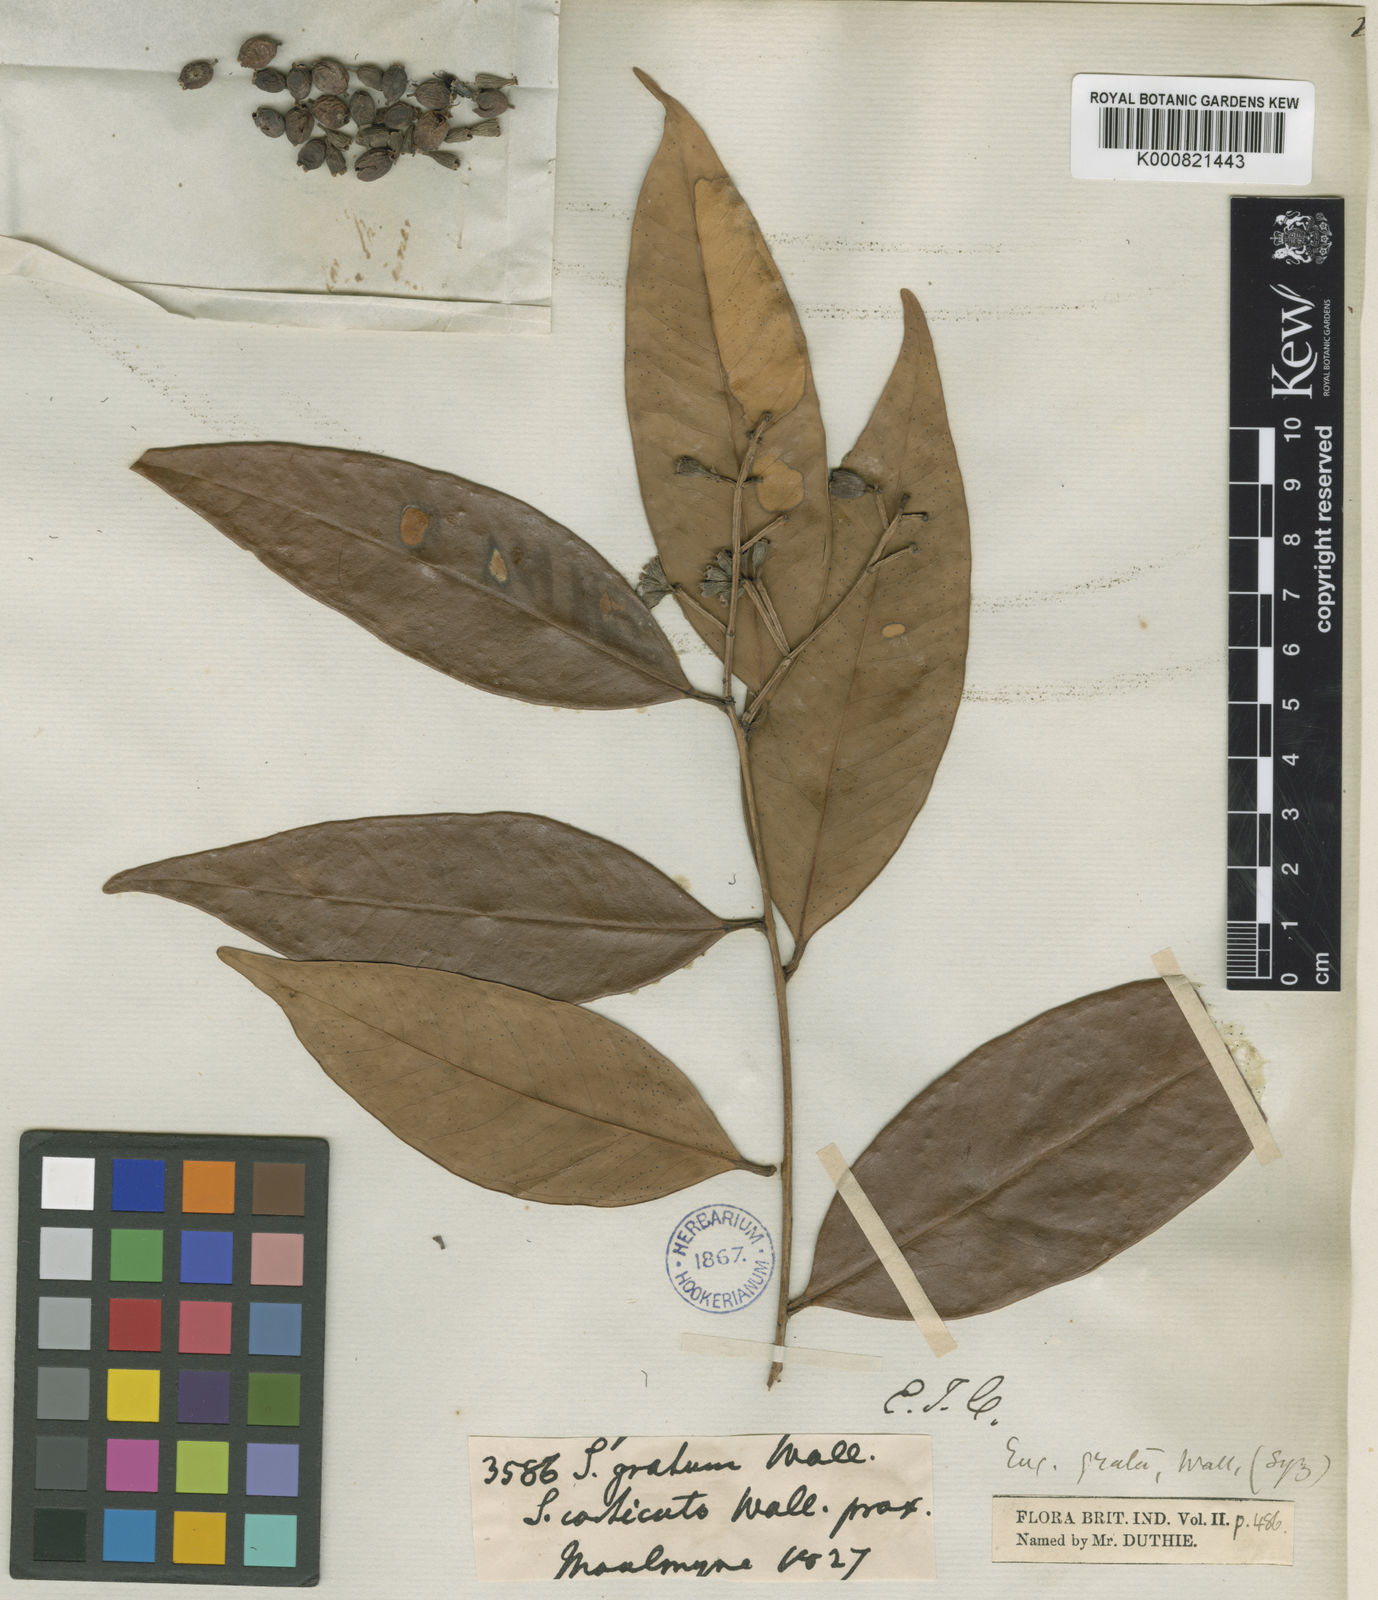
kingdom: Plantae
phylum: Tracheophyta
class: Magnoliopsida
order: Myrtales
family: Myrtaceae
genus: Syzygium
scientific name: Syzygium
